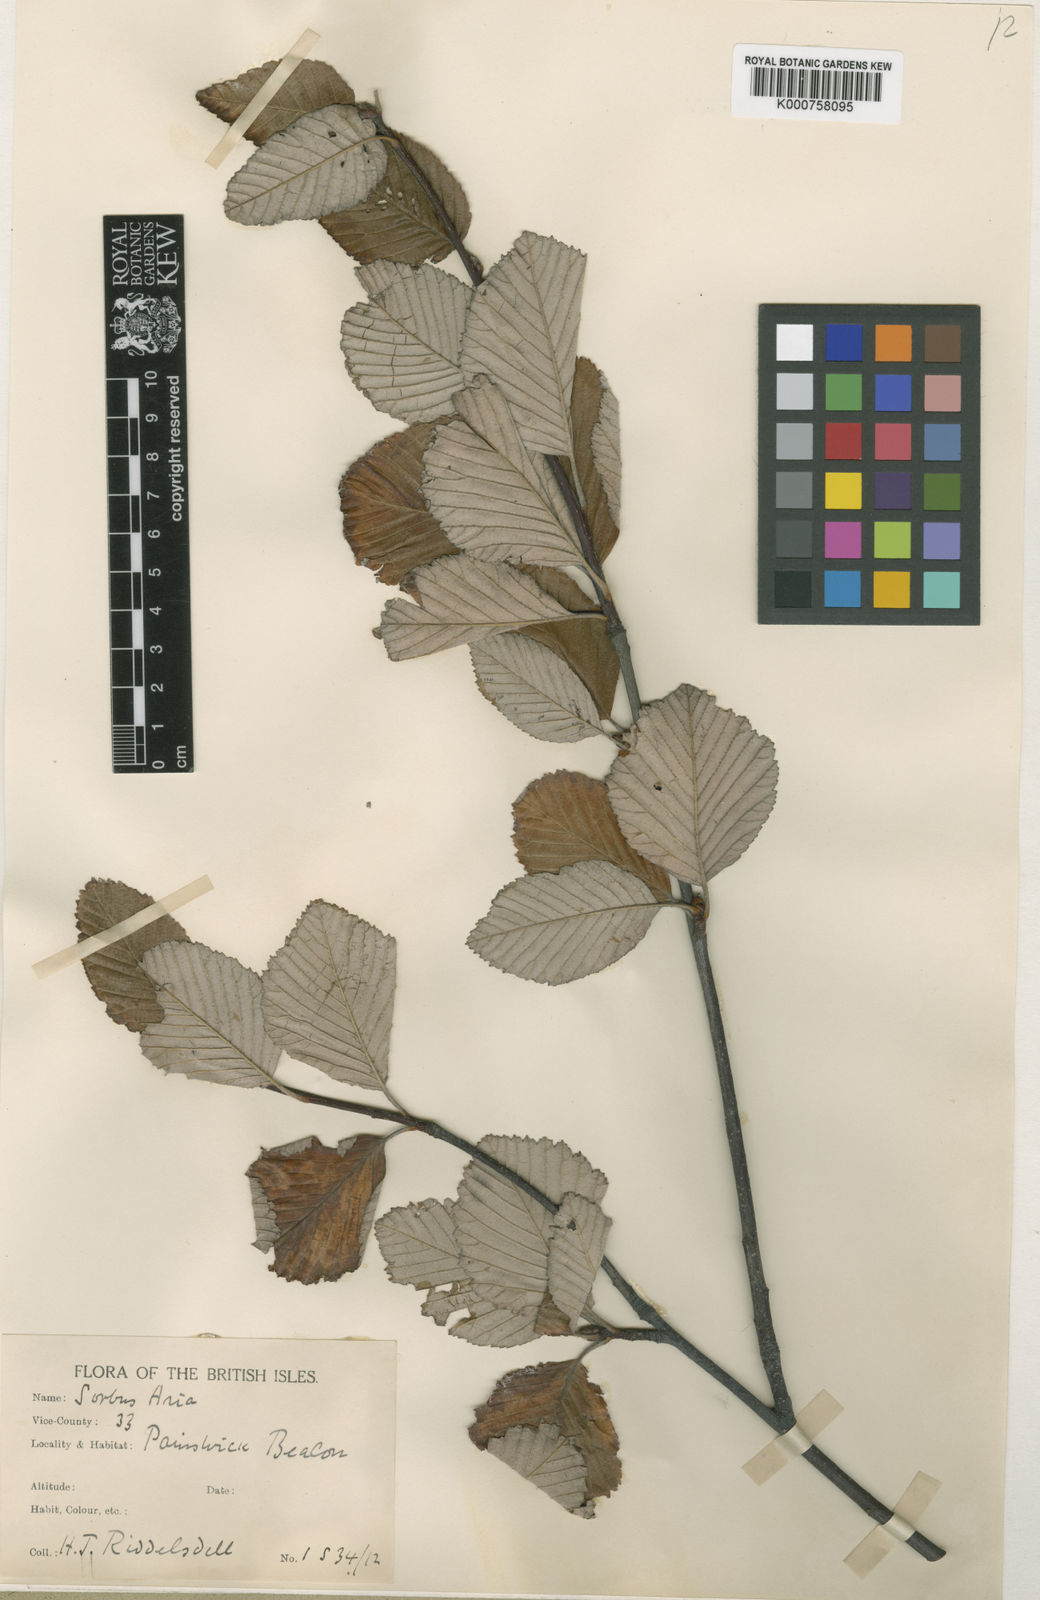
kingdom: Plantae
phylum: Tracheophyta
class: Magnoliopsida
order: Rosales
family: Rosaceae
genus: Aria
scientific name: Aria edulis
